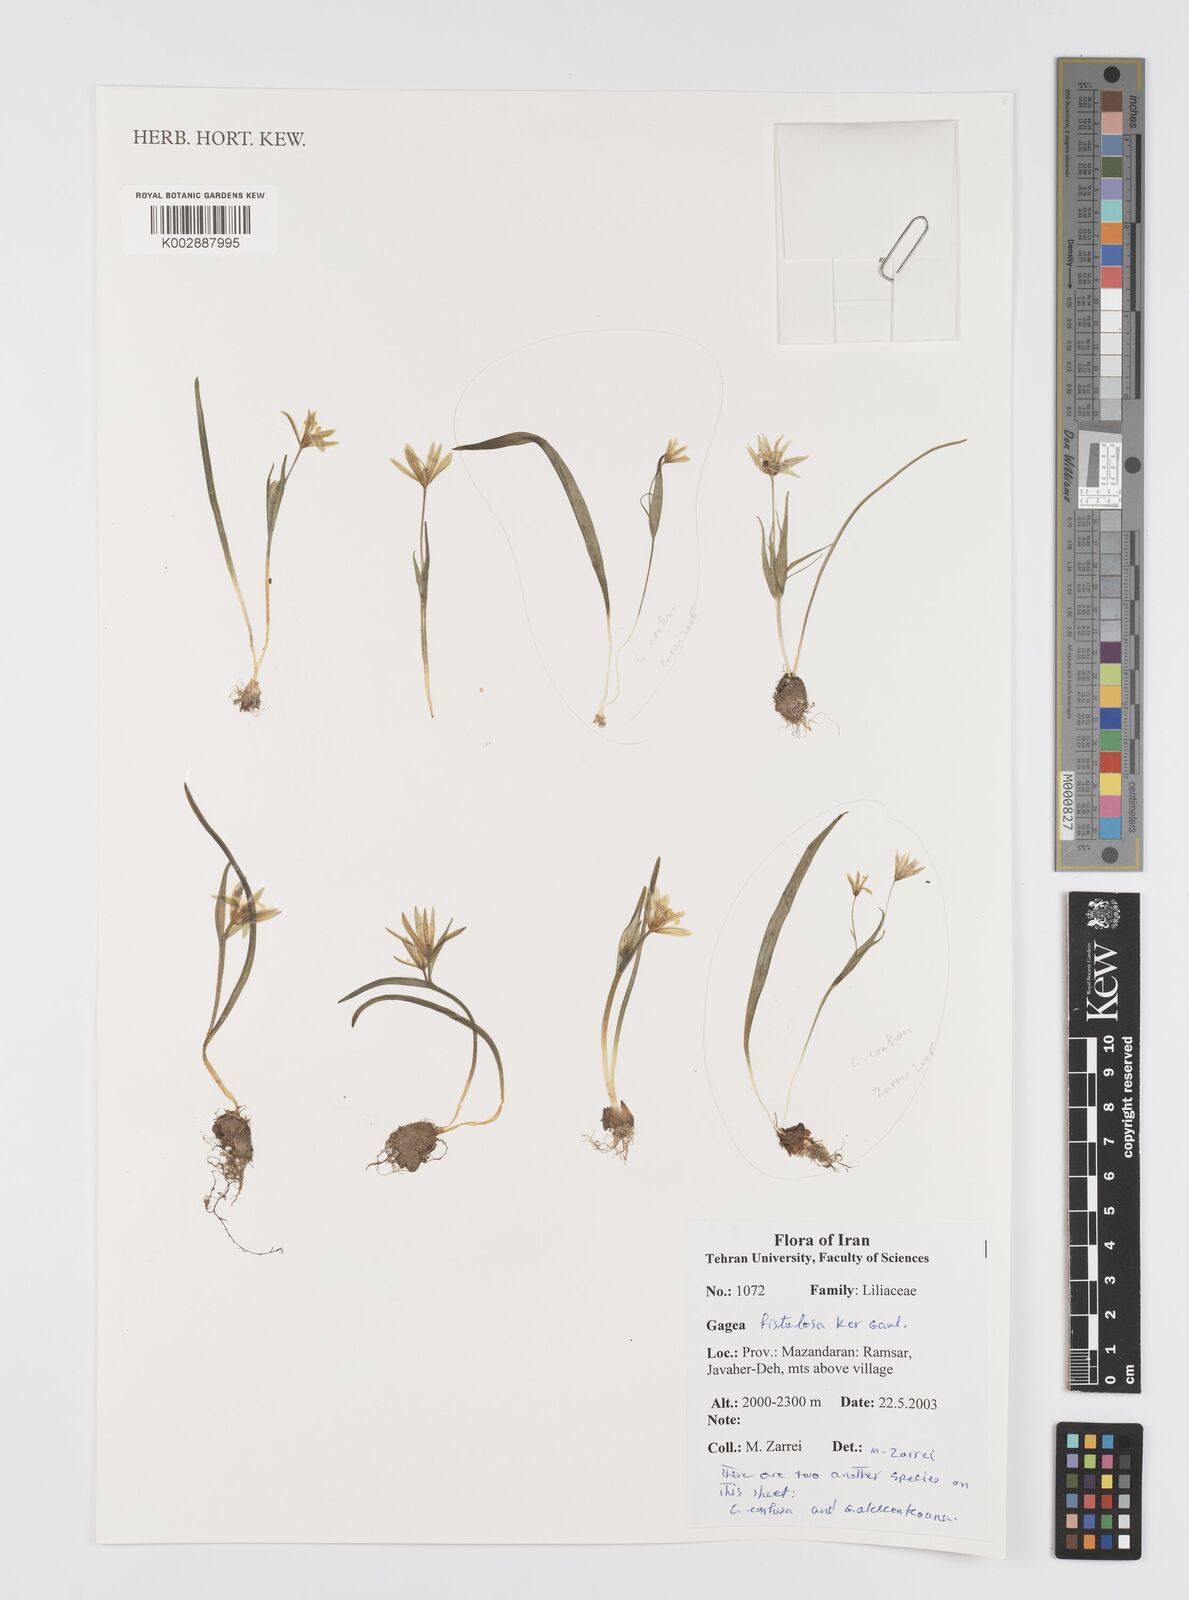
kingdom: Plantae
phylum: Tracheophyta
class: Liliopsida
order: Liliales
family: Liliaceae
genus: Gagea
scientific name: Gagea bohemica
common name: Early star-of-bethlehem
